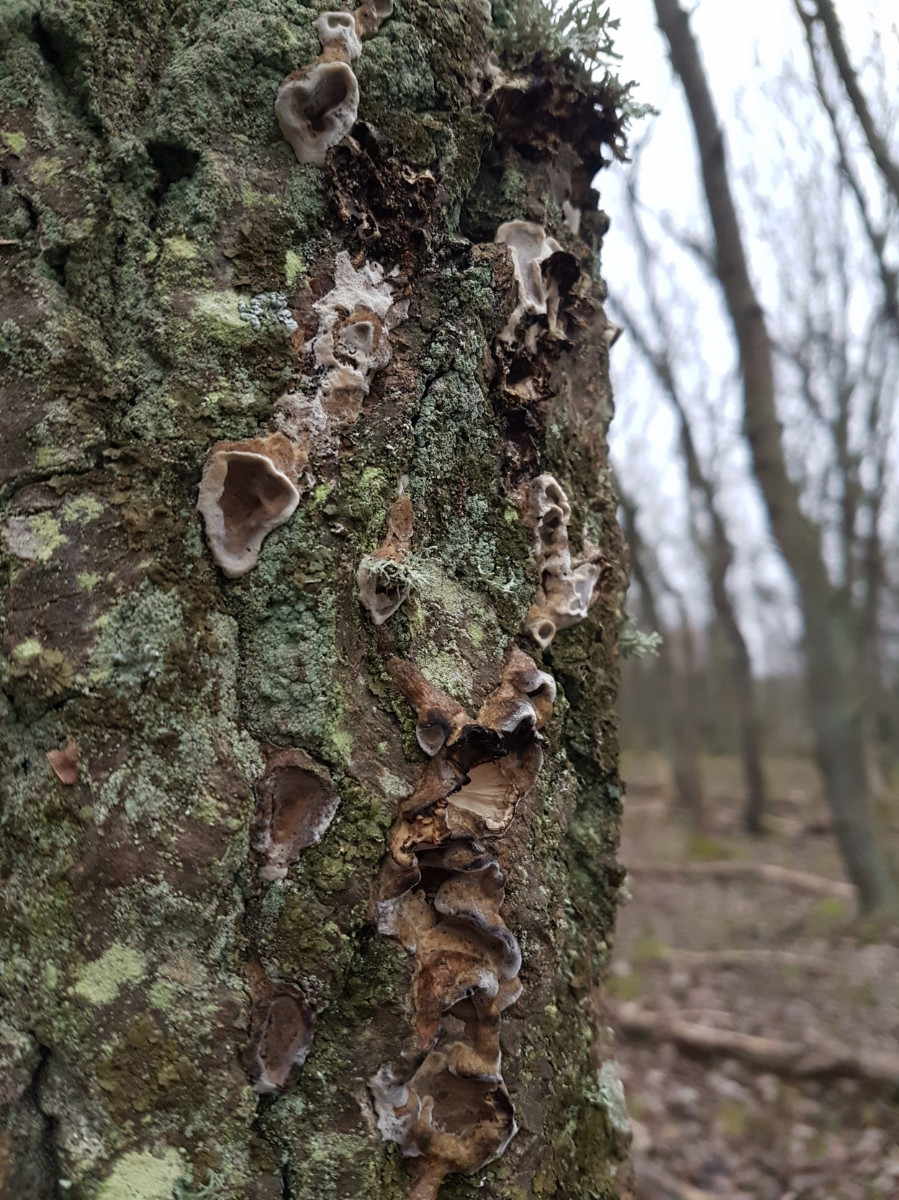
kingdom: Fungi
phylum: Basidiomycota
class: Agaricomycetes
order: Polyporales
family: Phanerochaetaceae
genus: Bjerkandera
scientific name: Bjerkandera adusta
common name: sveden sodporesvamp
